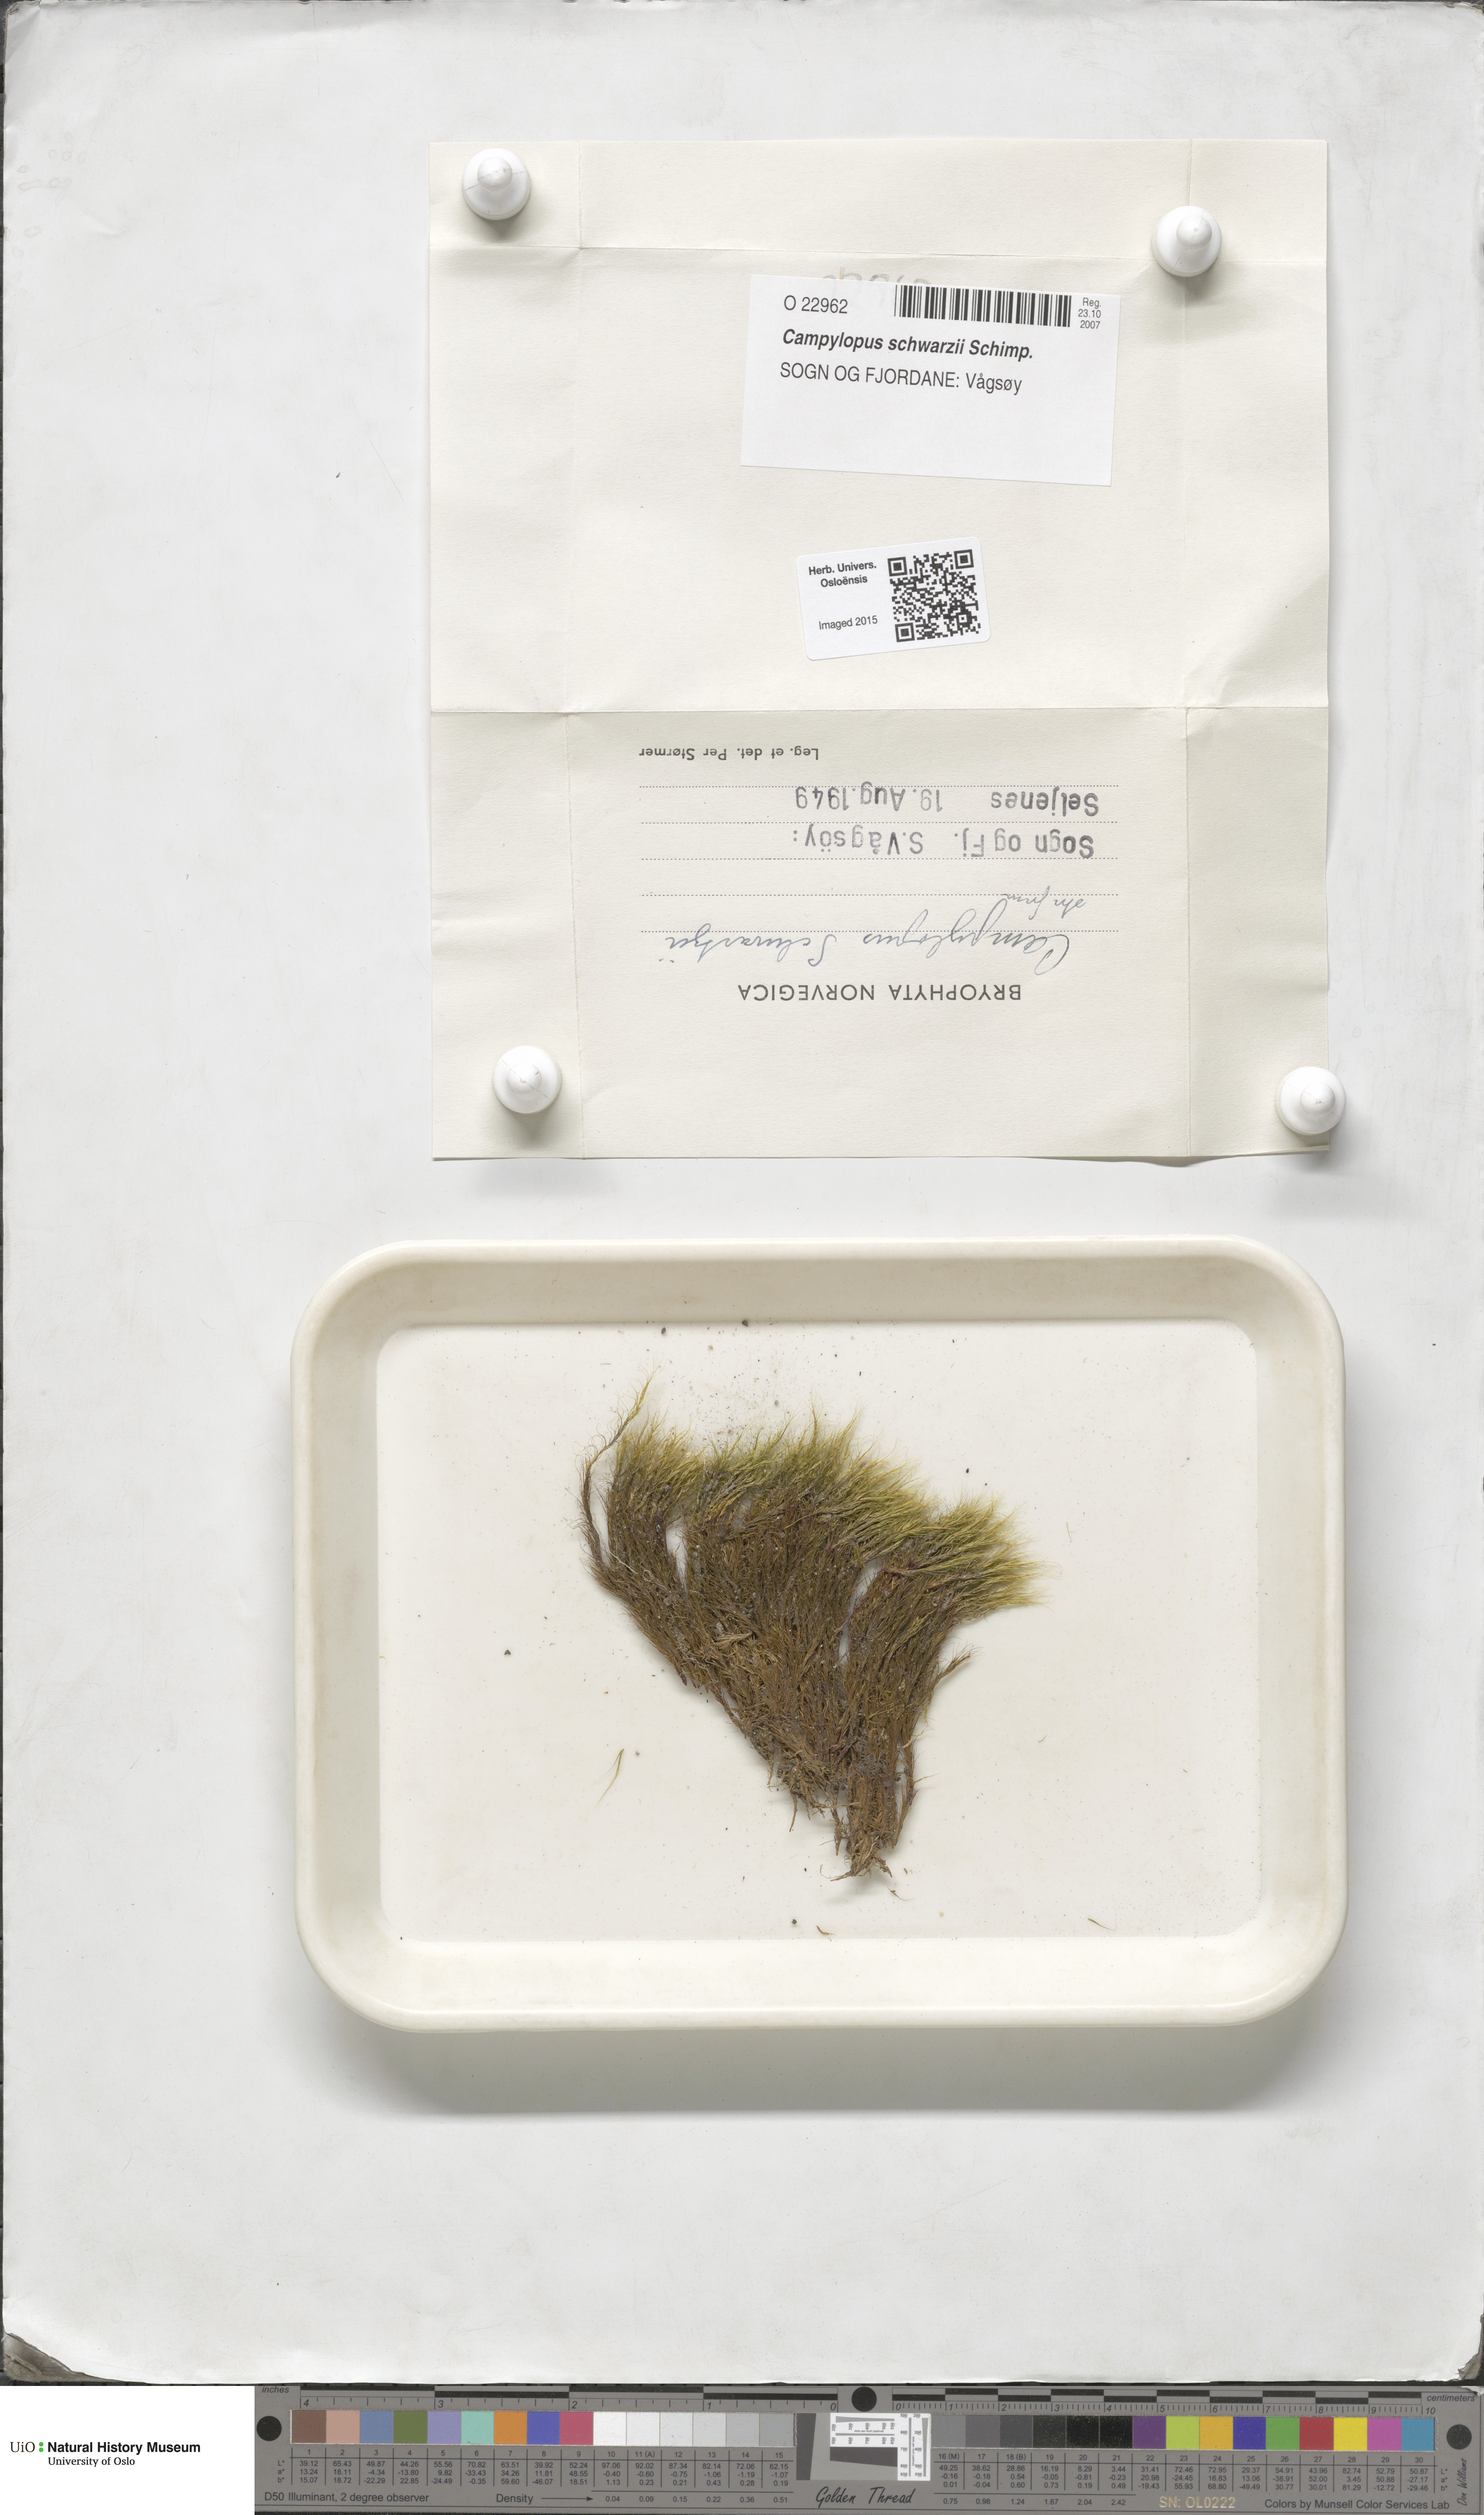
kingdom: Plantae
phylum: Bryophyta
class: Bryopsida
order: Dicranales
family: Leucobryaceae
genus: Campylopus
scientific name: Campylopus gracilis
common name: Schwarz's swan-neck moss
